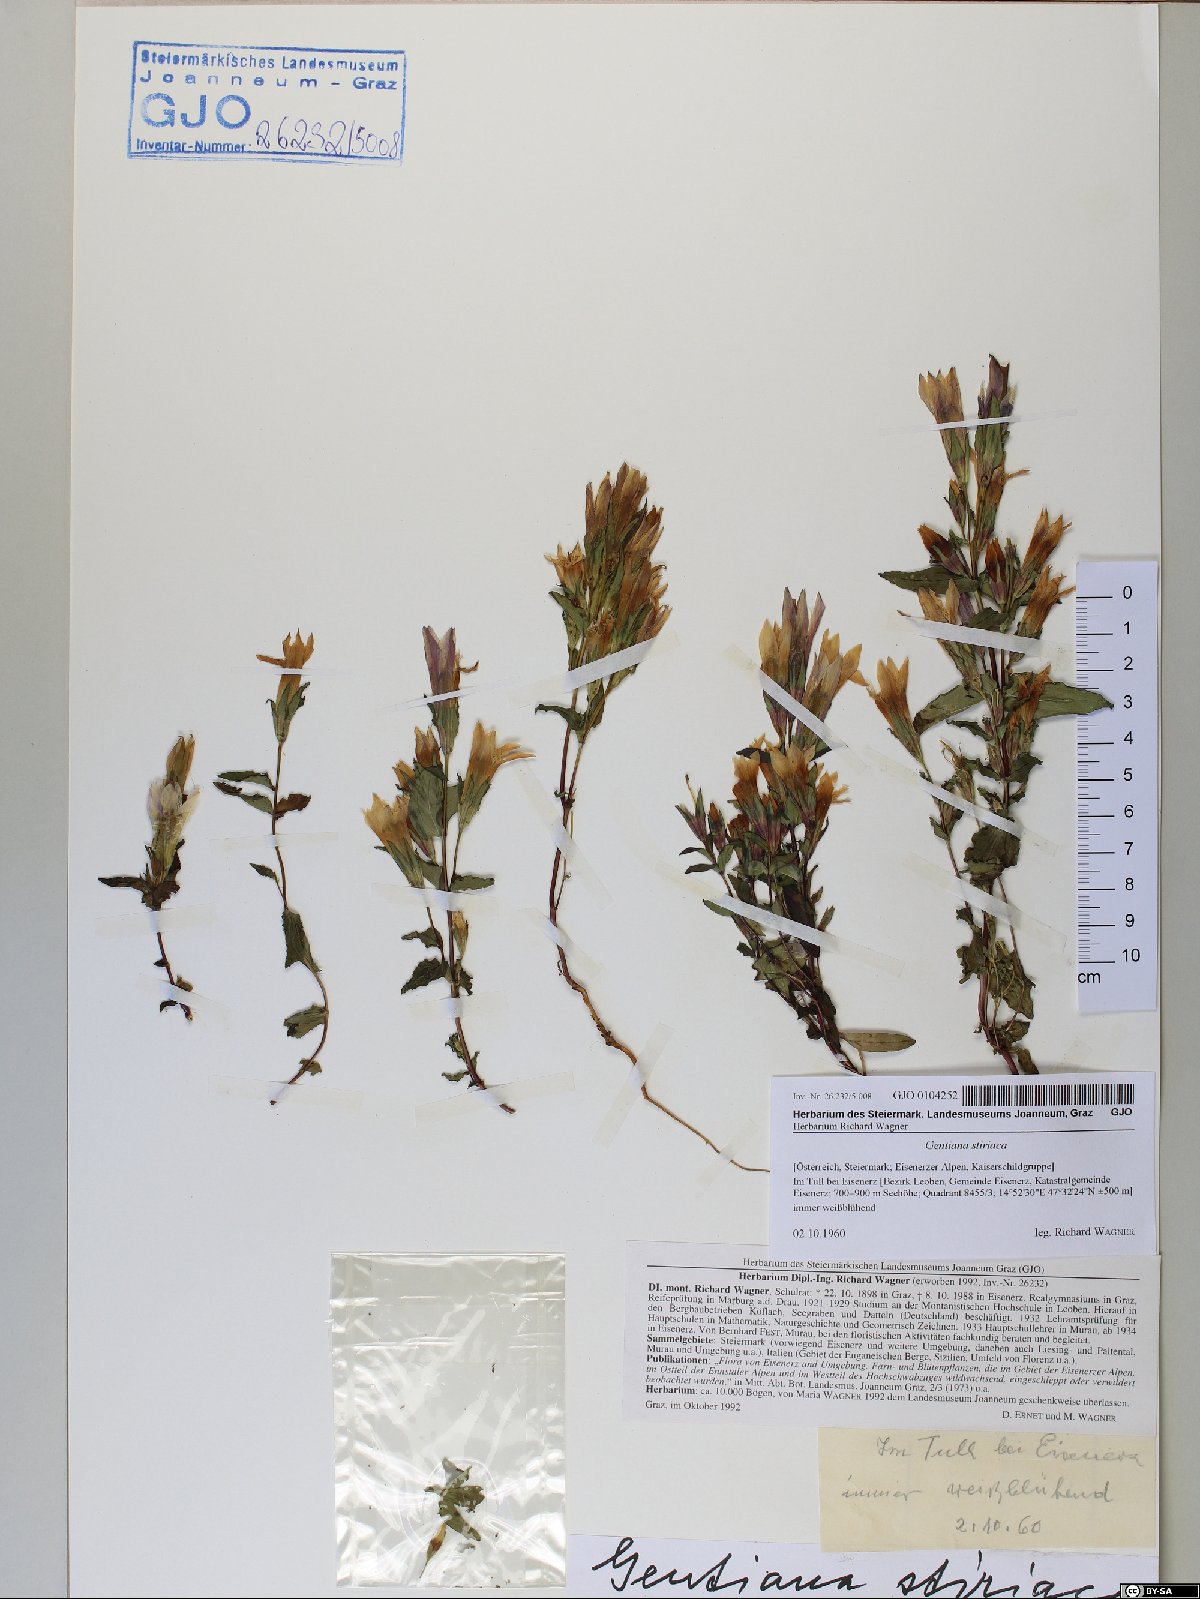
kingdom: Plantae
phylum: Tracheophyta
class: Magnoliopsida
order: Gentianales
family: Gentianaceae
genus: Gentianella
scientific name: Gentianella rhaetica
